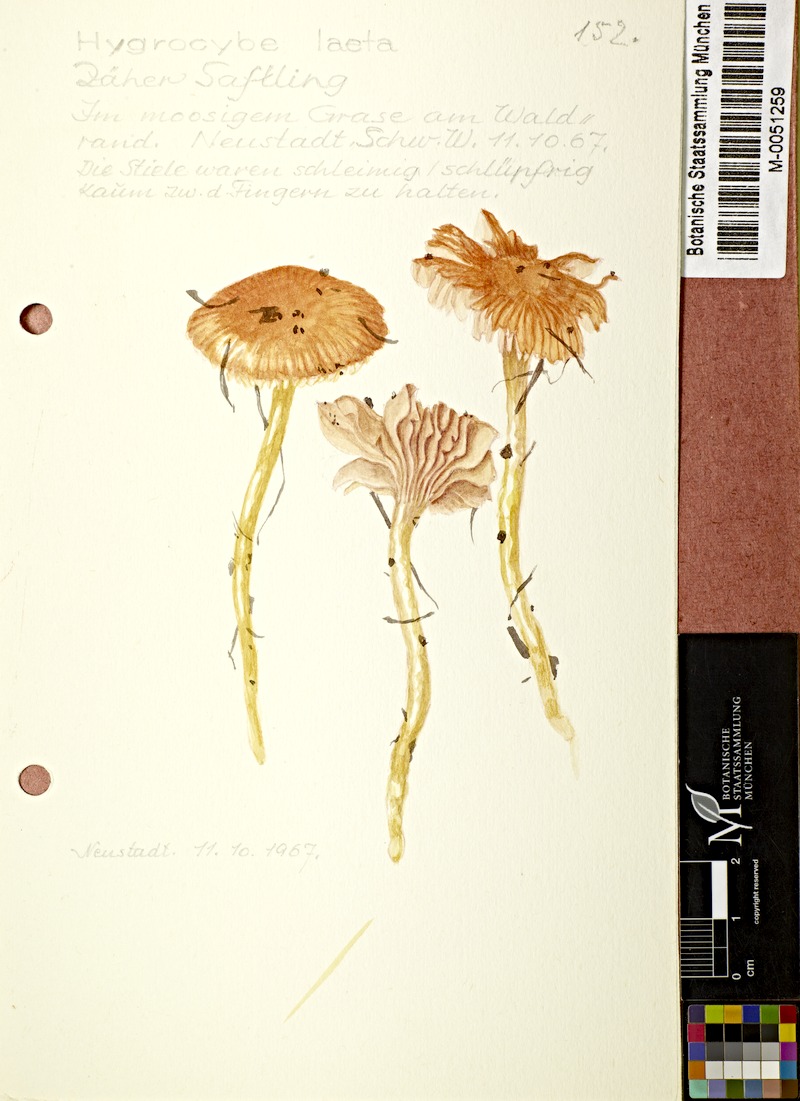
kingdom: Fungi
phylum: Basidiomycota
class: Agaricomycetes
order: Agaricales
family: Hygrophoraceae
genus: Gliophorus
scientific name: Gliophorus laetus
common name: Heath waxcap
